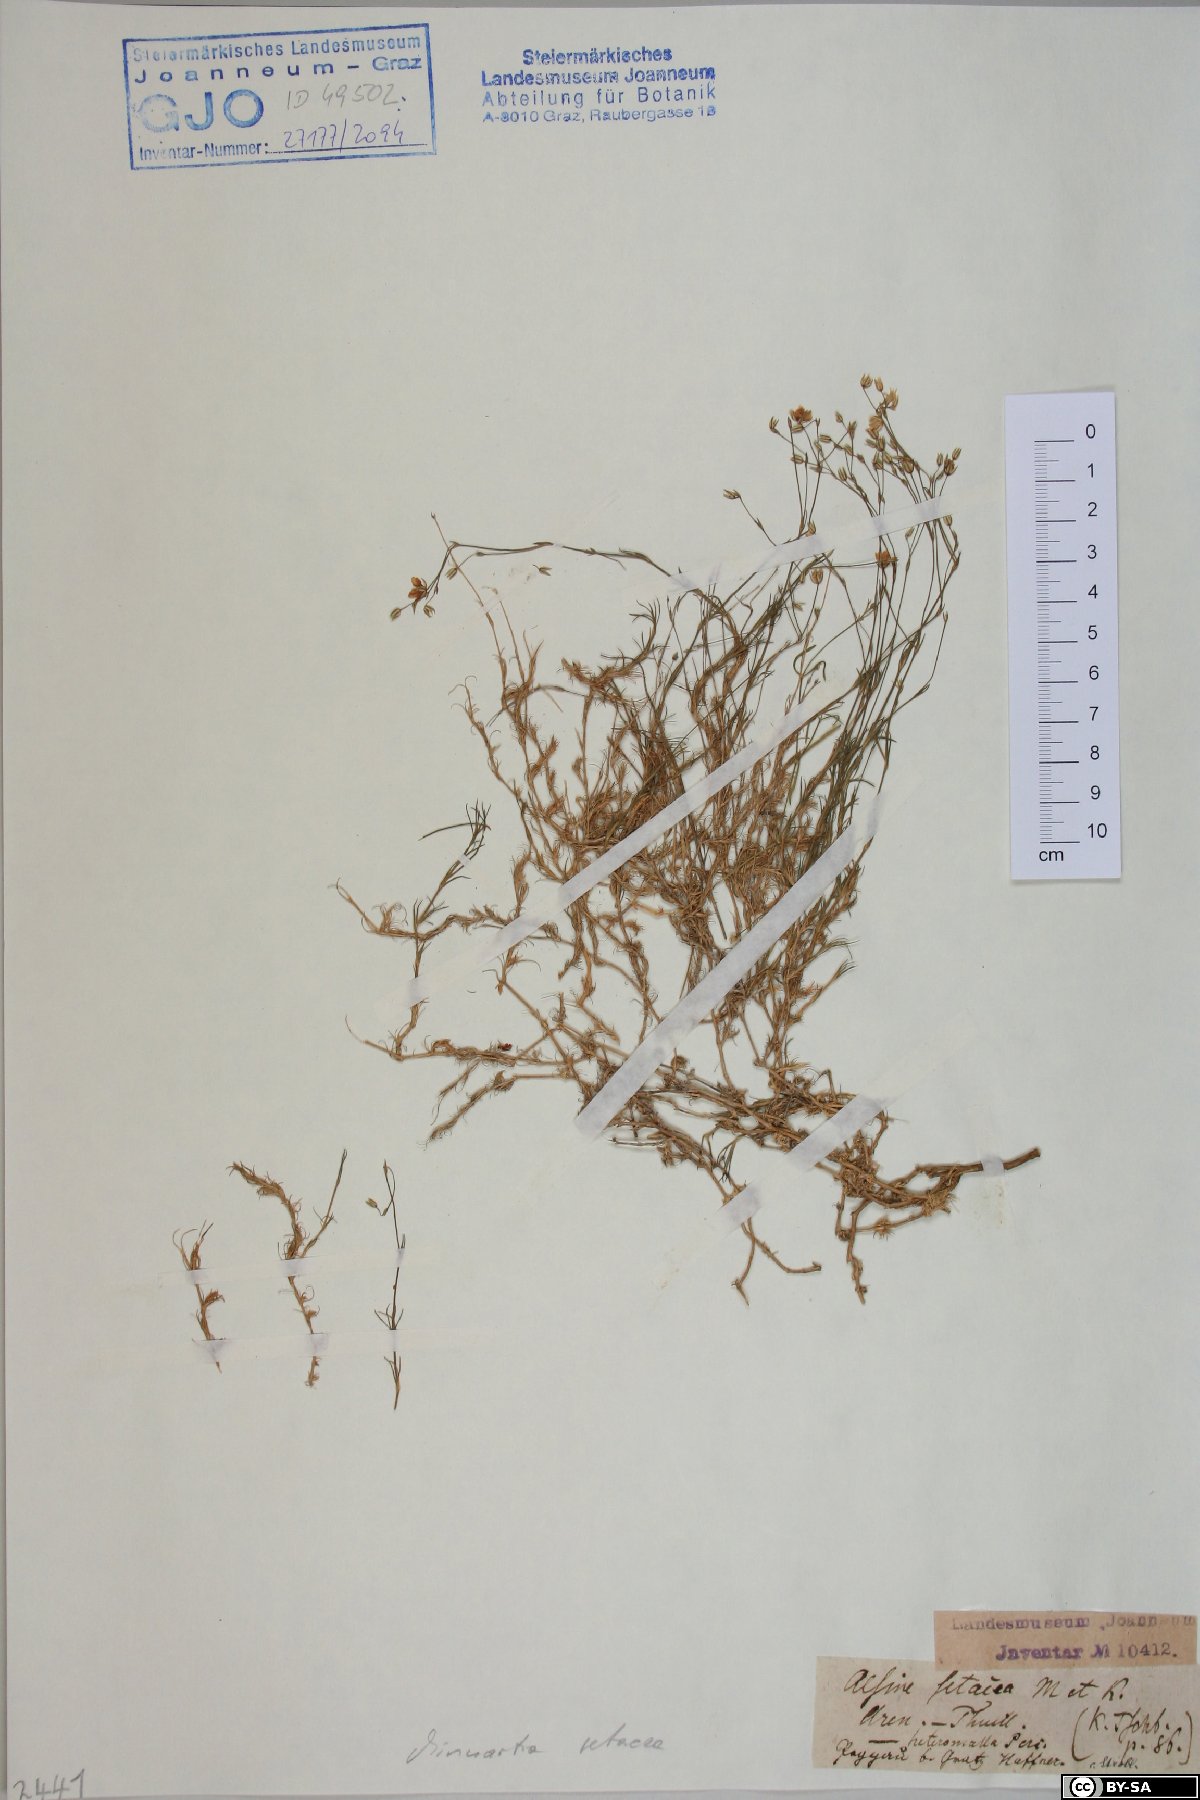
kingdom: Plantae
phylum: Tracheophyta
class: Magnoliopsida
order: Caryophyllales
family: Caryophyllaceae
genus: Minuartia
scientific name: Minuartia setacea
